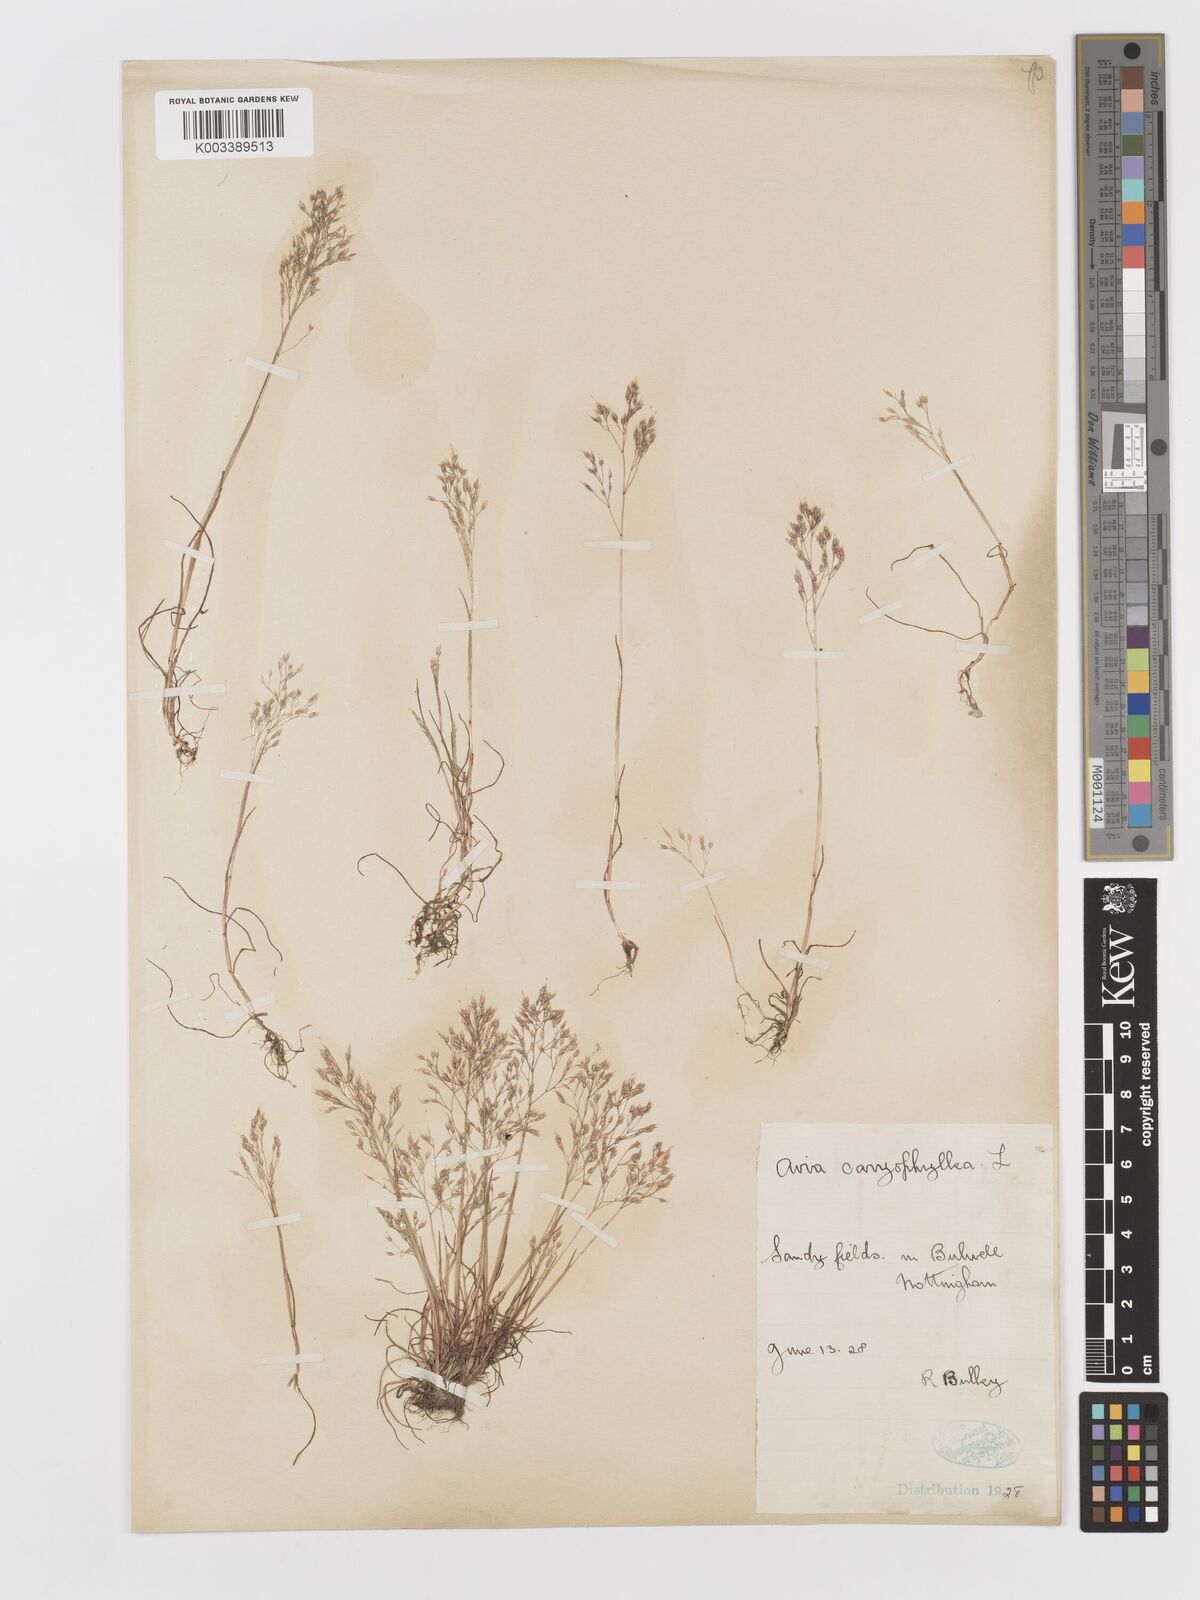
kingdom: Plantae
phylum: Tracheophyta
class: Liliopsida
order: Poales
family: Poaceae
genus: Aira
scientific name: Aira caryophyllea
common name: Silver hairgrass
